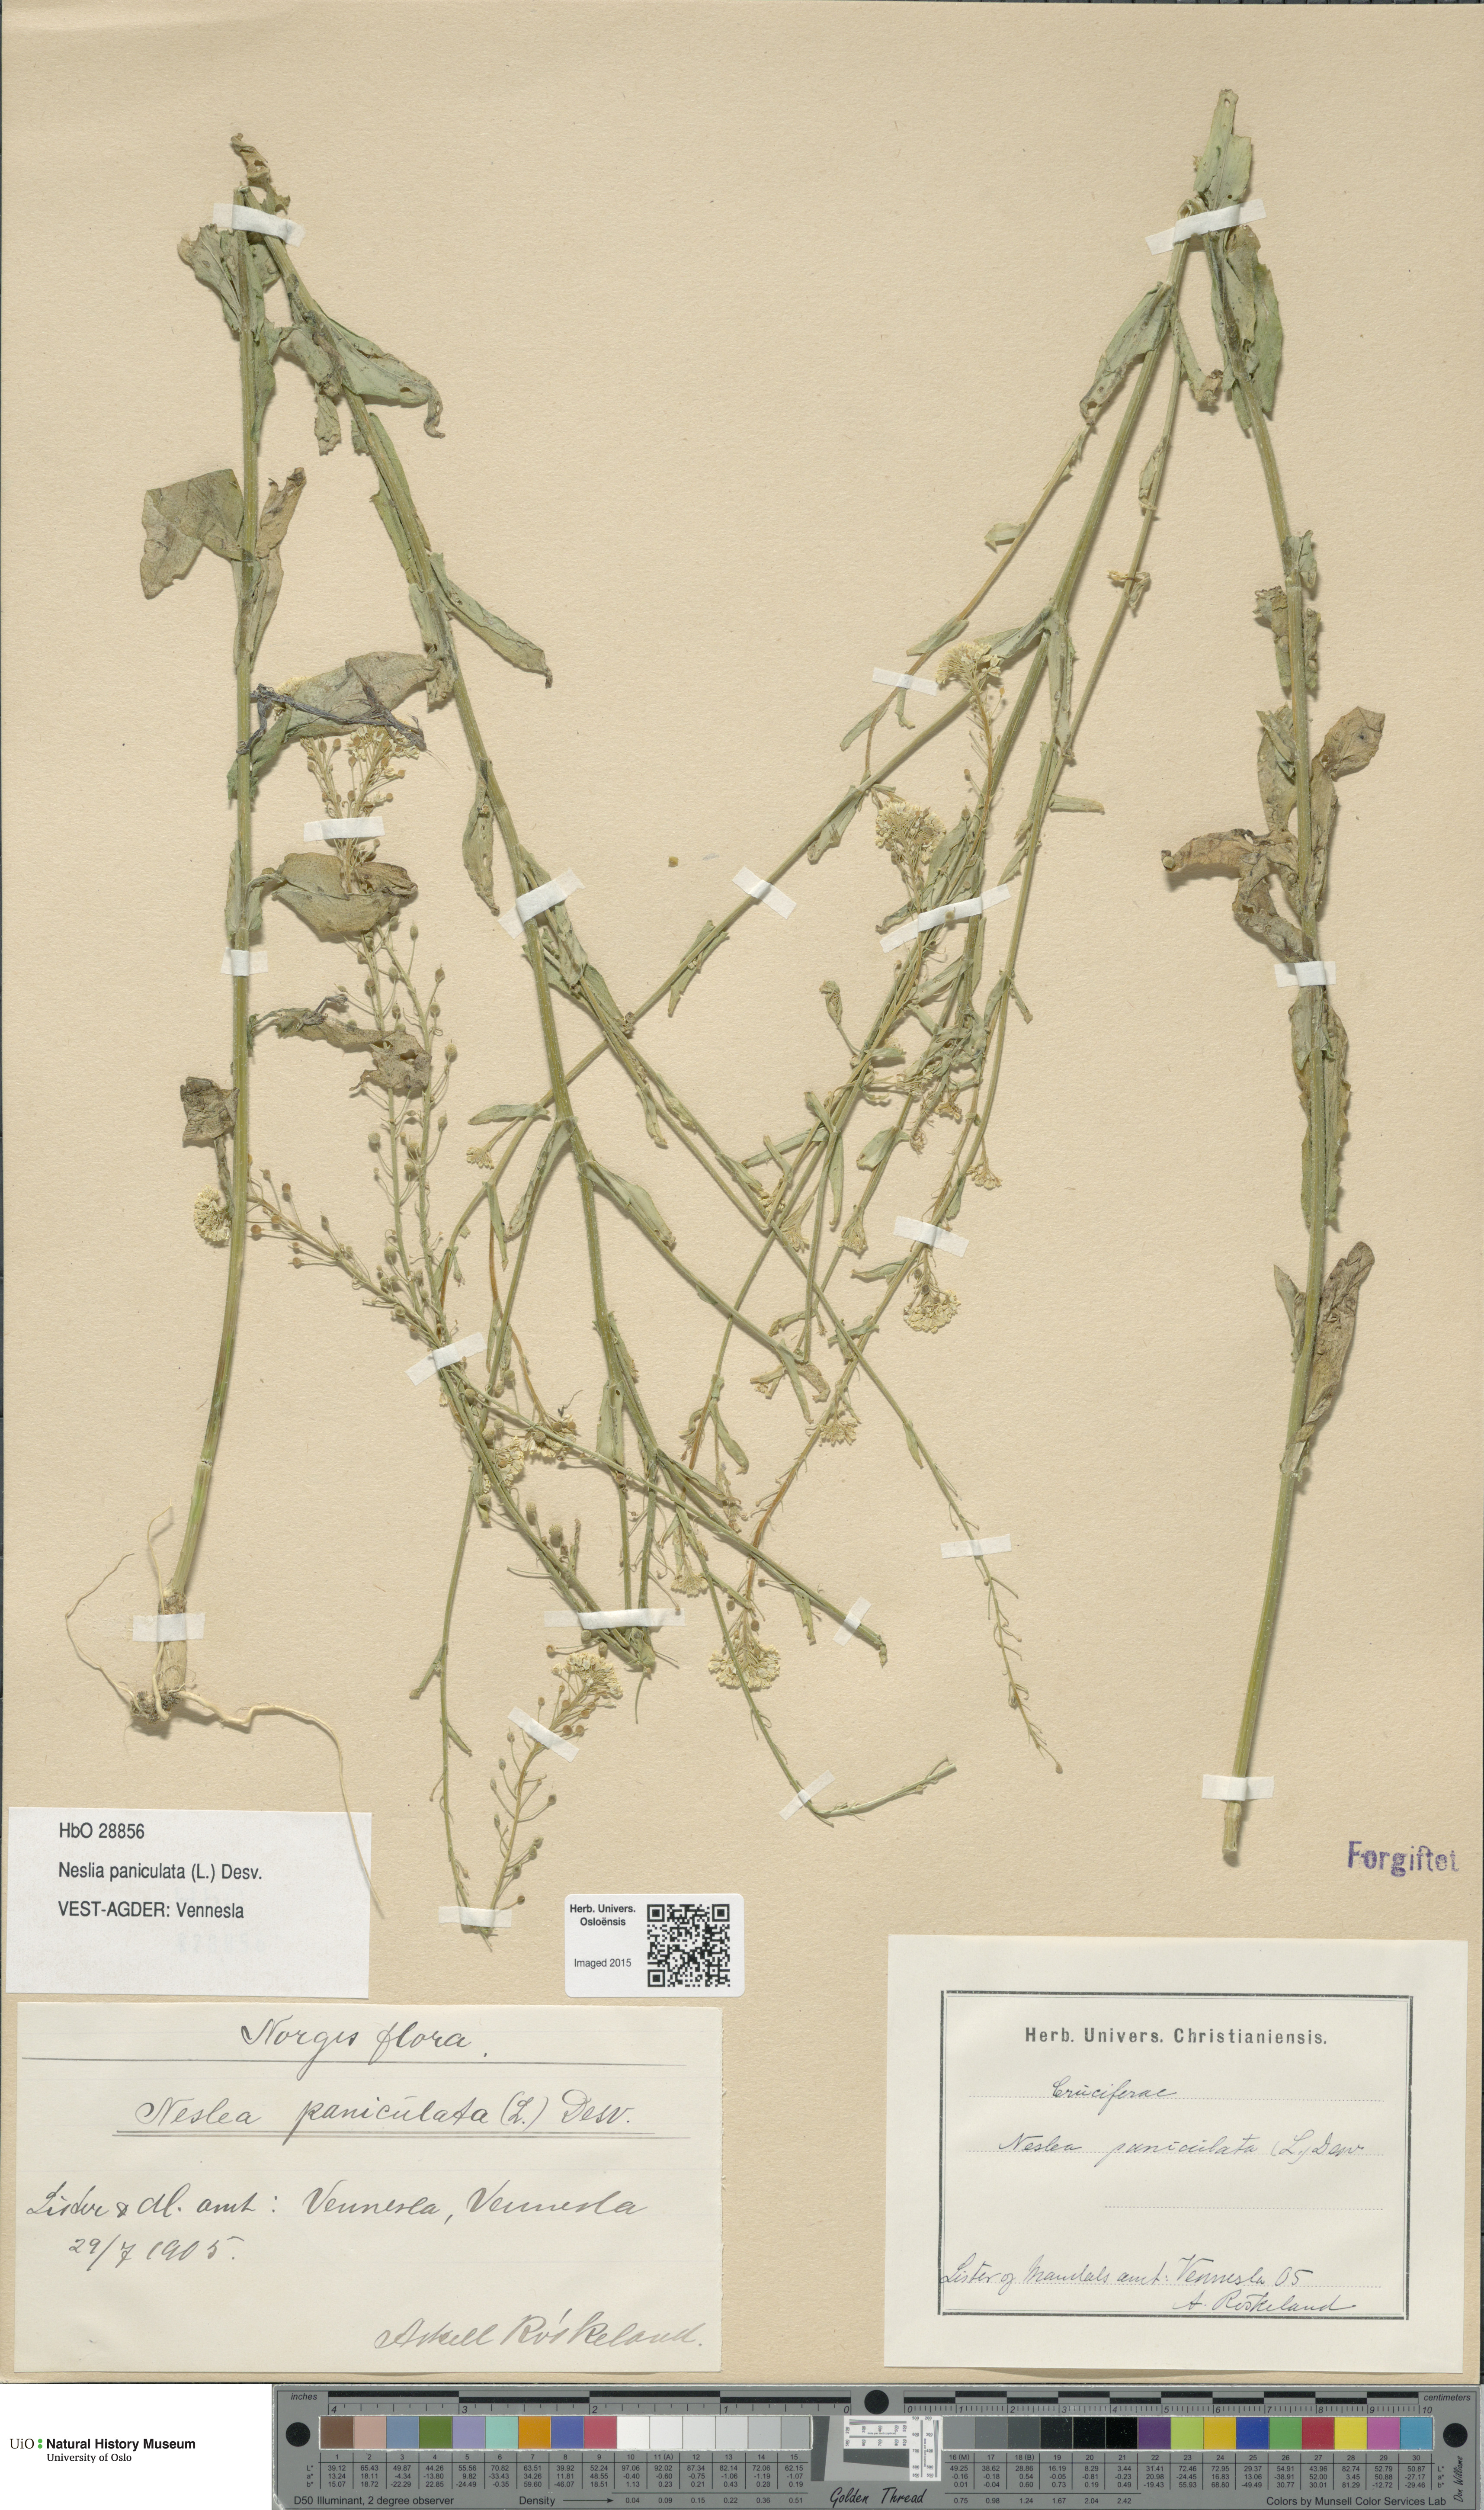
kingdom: Plantae
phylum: Tracheophyta
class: Magnoliopsida
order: Brassicales
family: Brassicaceae
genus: Neslia
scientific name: Neslia paniculata
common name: Ball mustard
